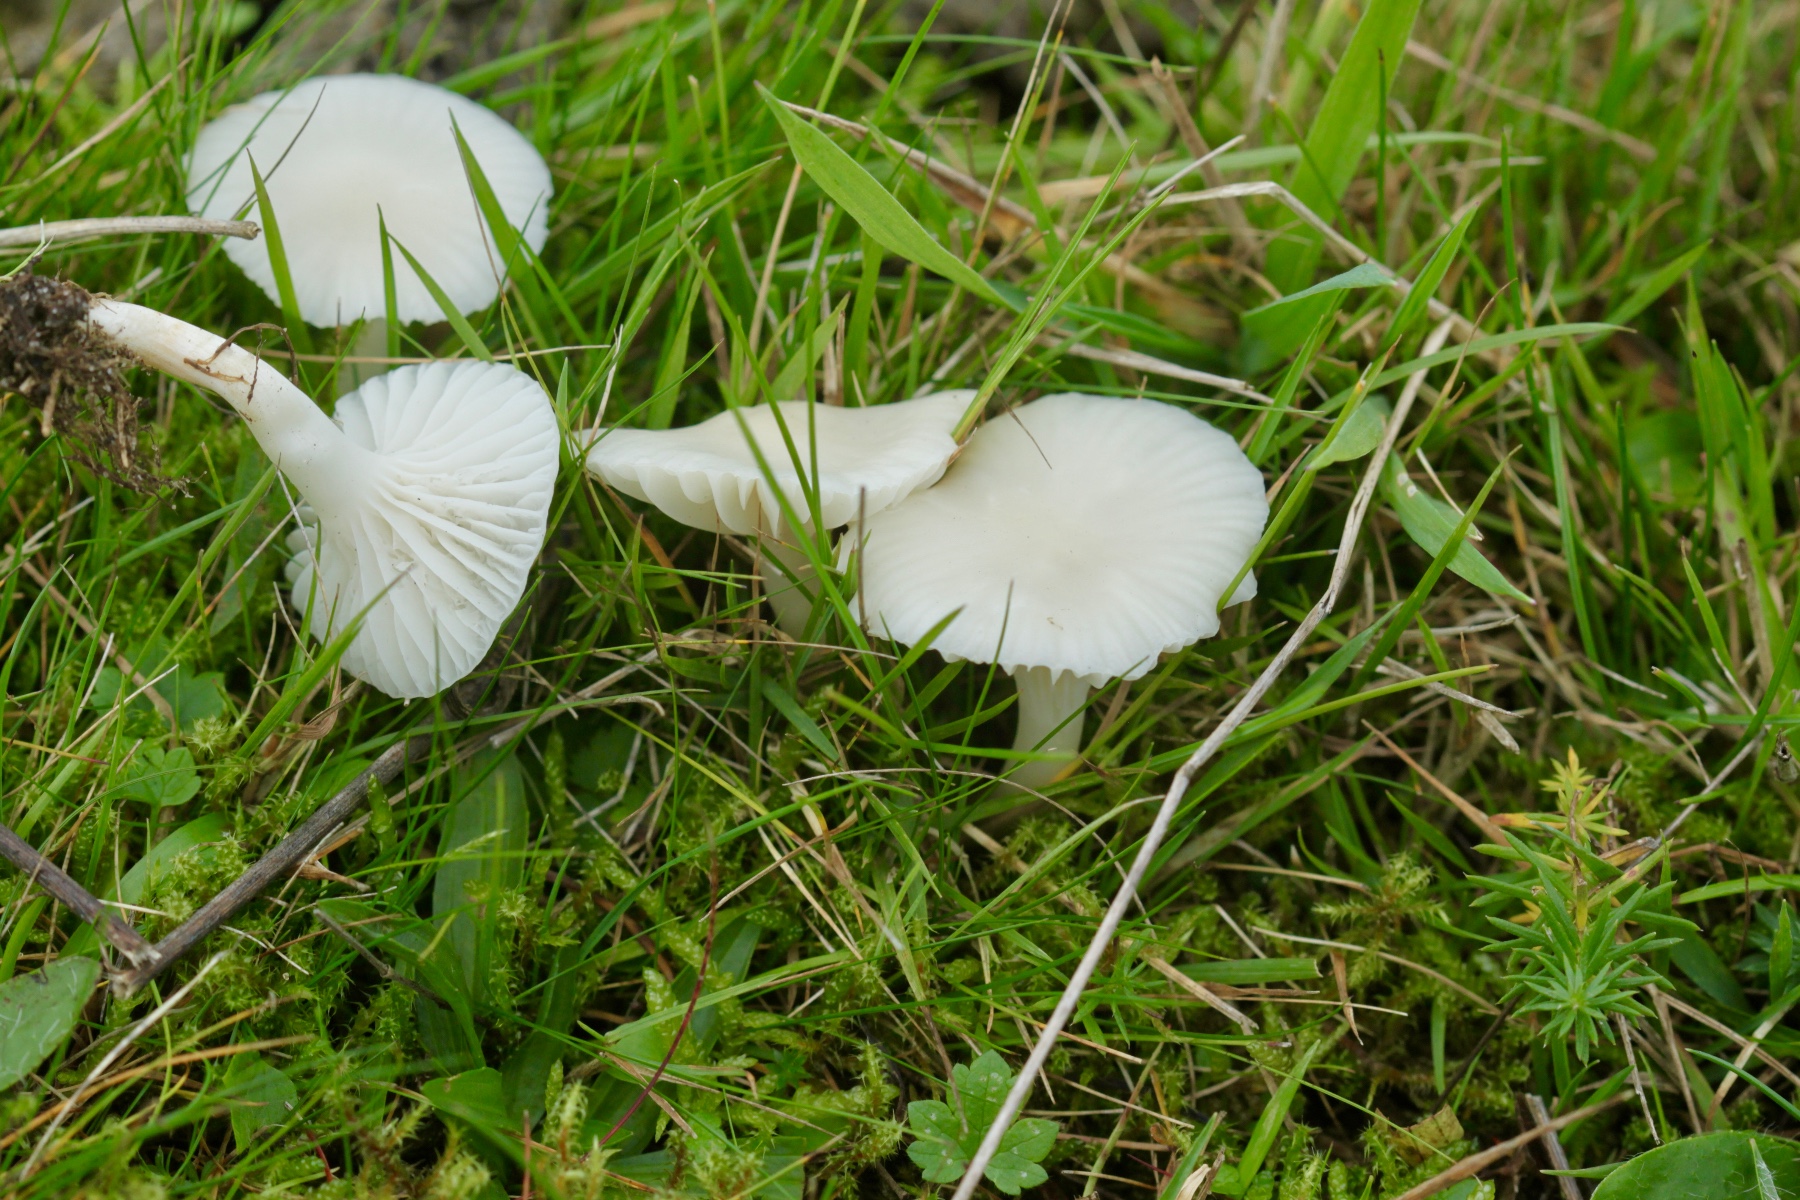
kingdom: Fungi
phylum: Basidiomycota
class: Agaricomycetes
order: Agaricales
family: Hygrophoraceae
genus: Cuphophyllus
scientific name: Cuphophyllus virgineus
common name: snehvid vokshat
